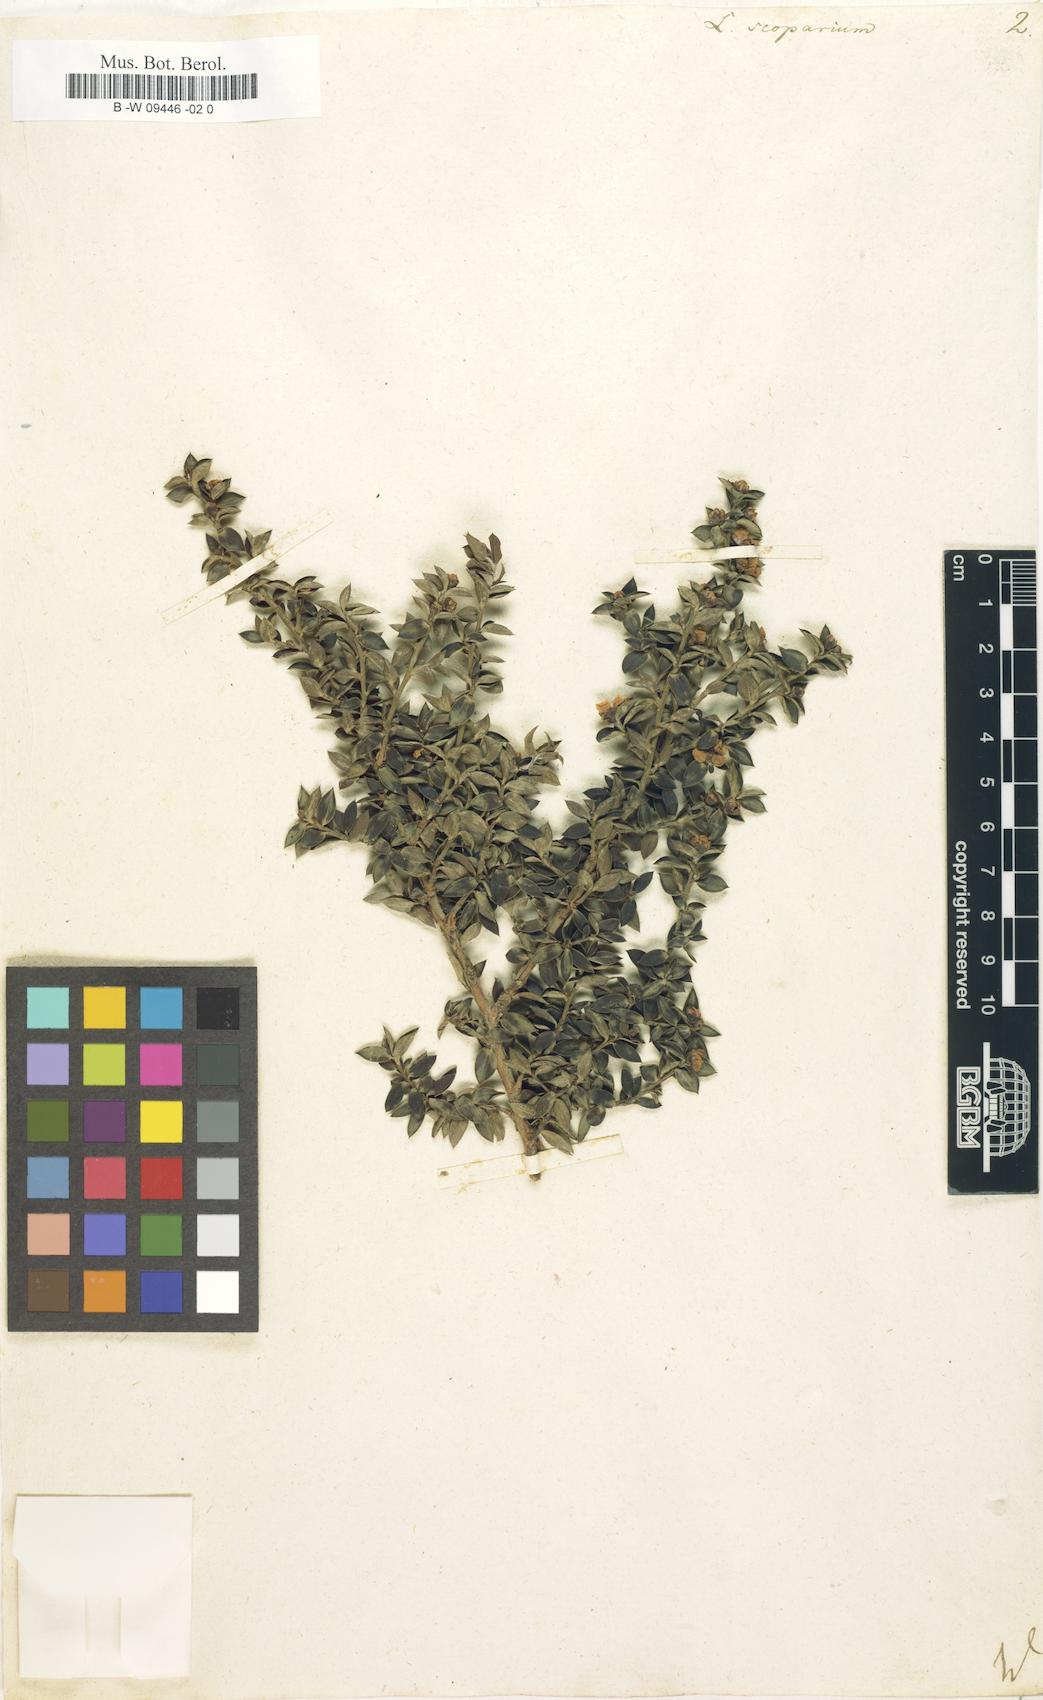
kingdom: Plantae
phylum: Tracheophyta
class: Magnoliopsida
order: Myrtales
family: Myrtaceae
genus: Leptospermum
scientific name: Leptospermum scoparium
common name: Broom tea-tree
